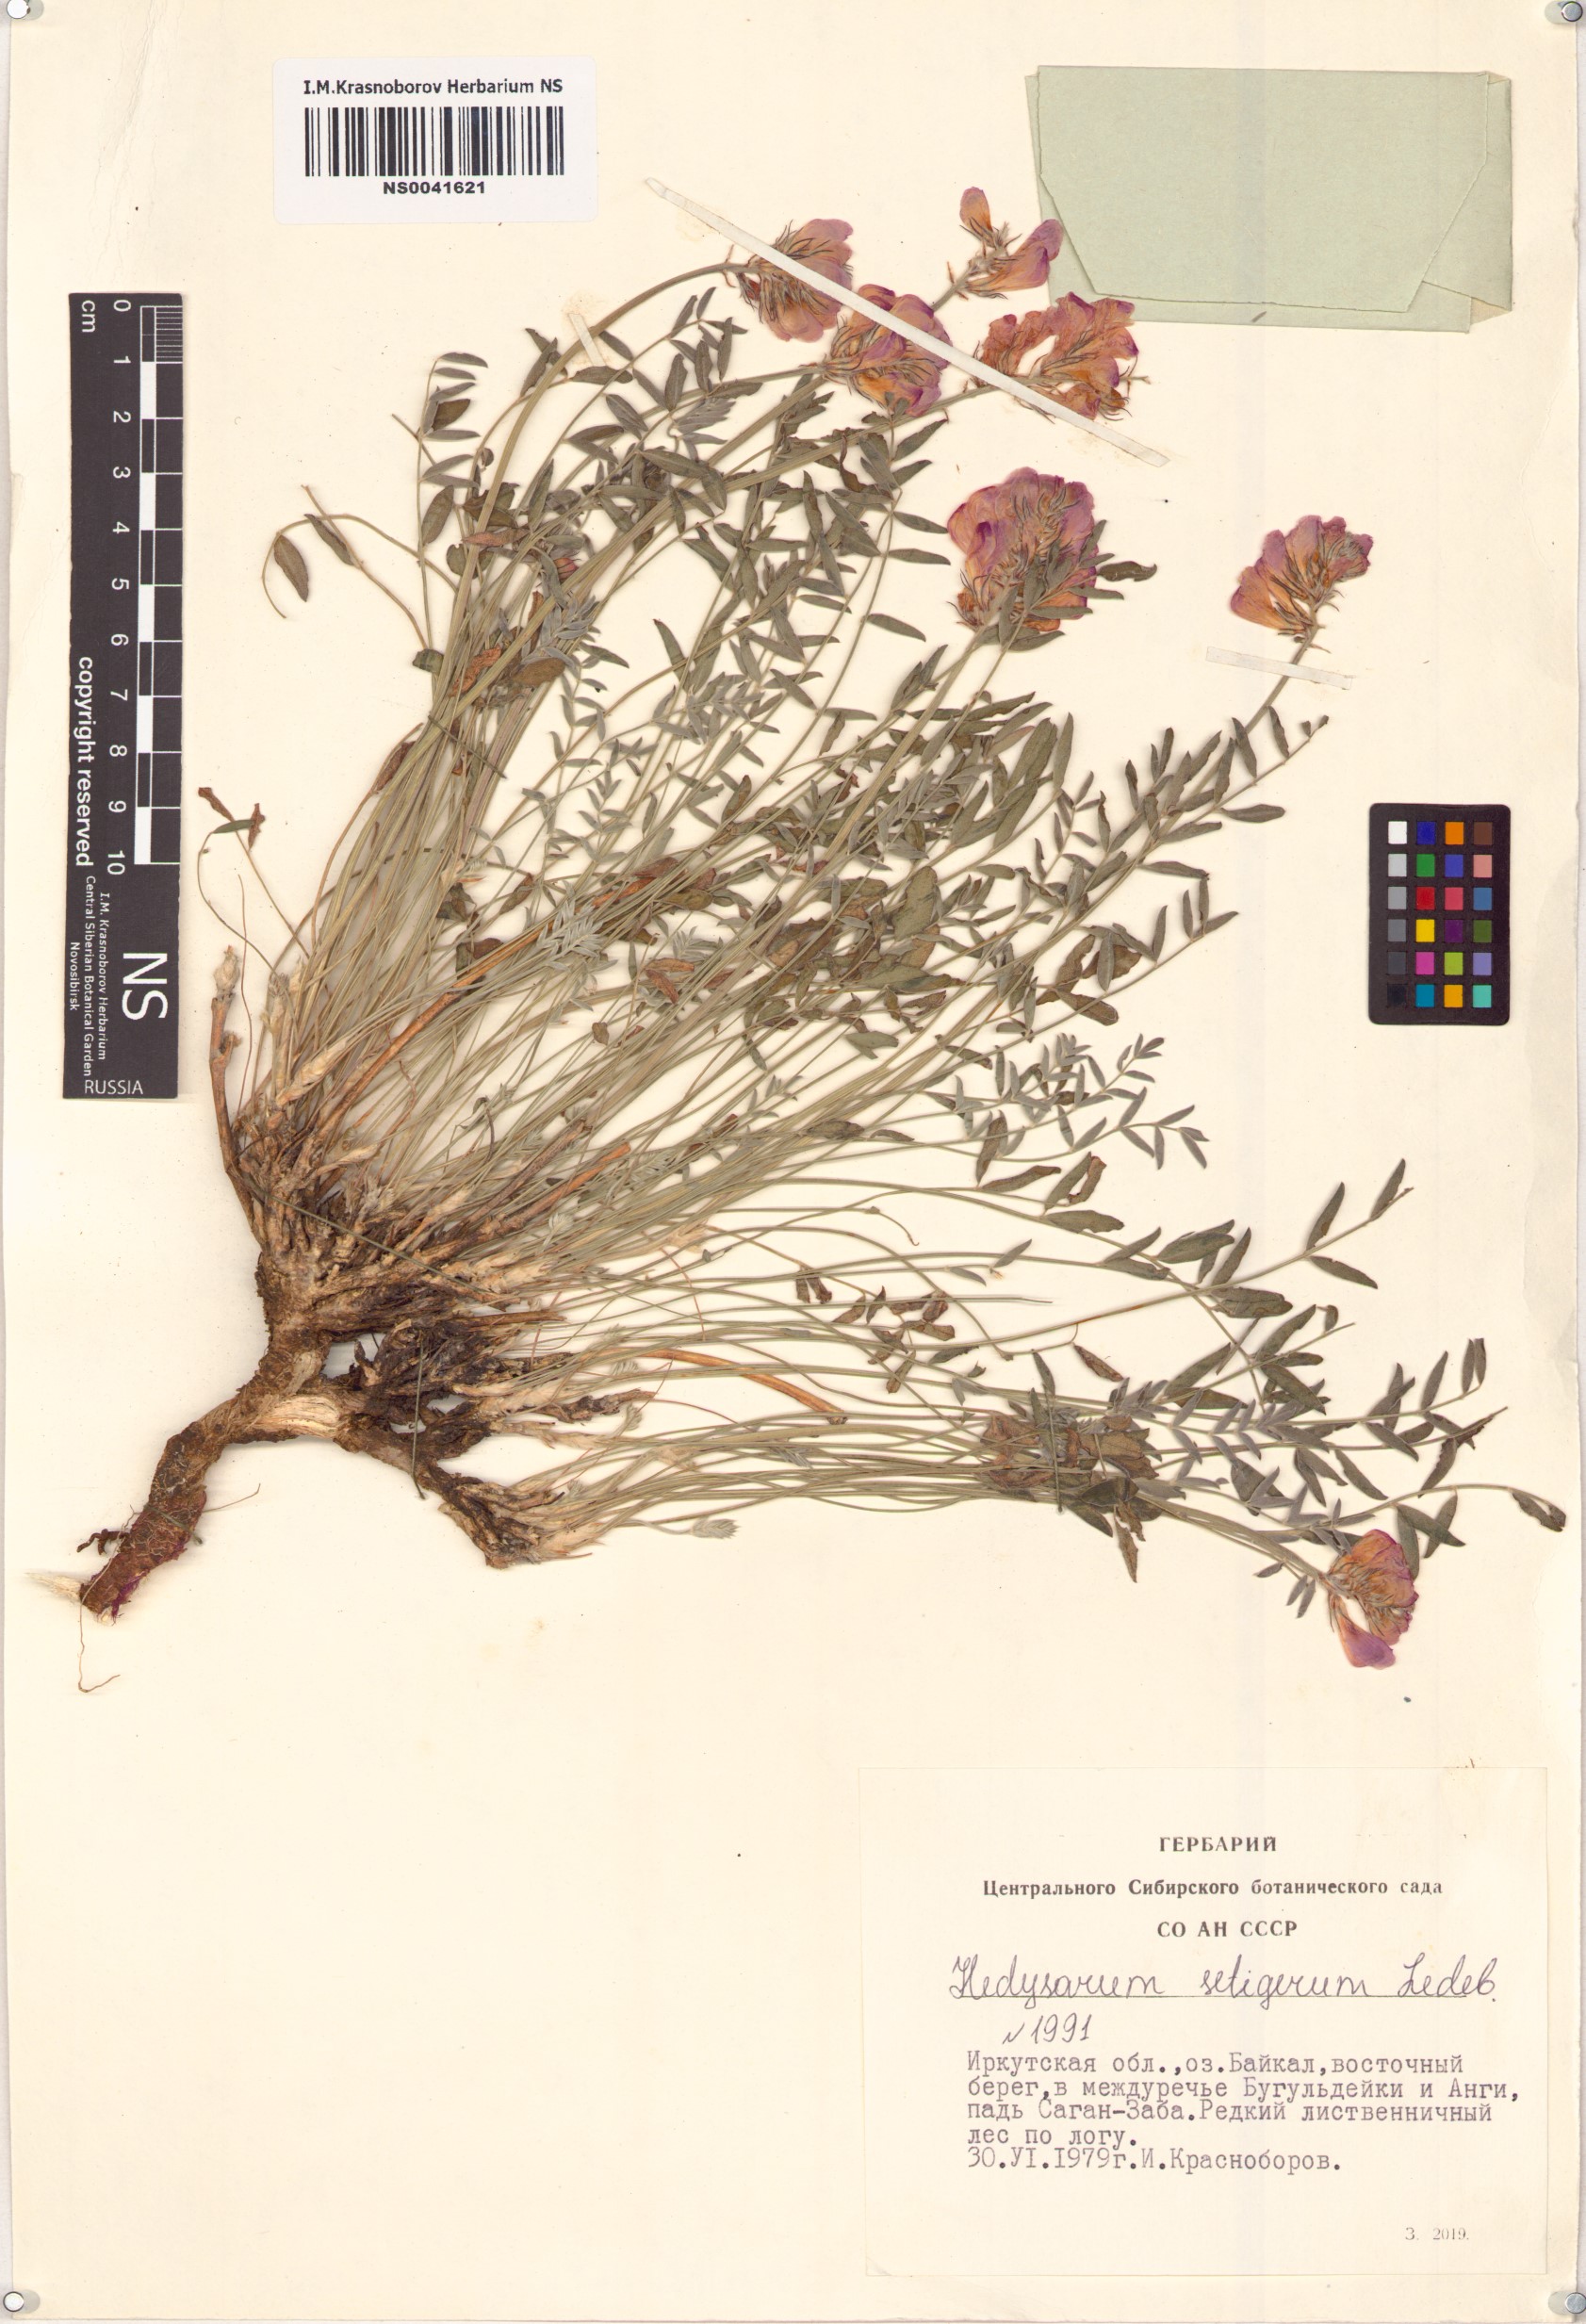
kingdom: Plantae
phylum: Tracheophyta
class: Magnoliopsida
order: Fabales
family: Fabaceae
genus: Hedysarum
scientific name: Hedysarum setigerum
